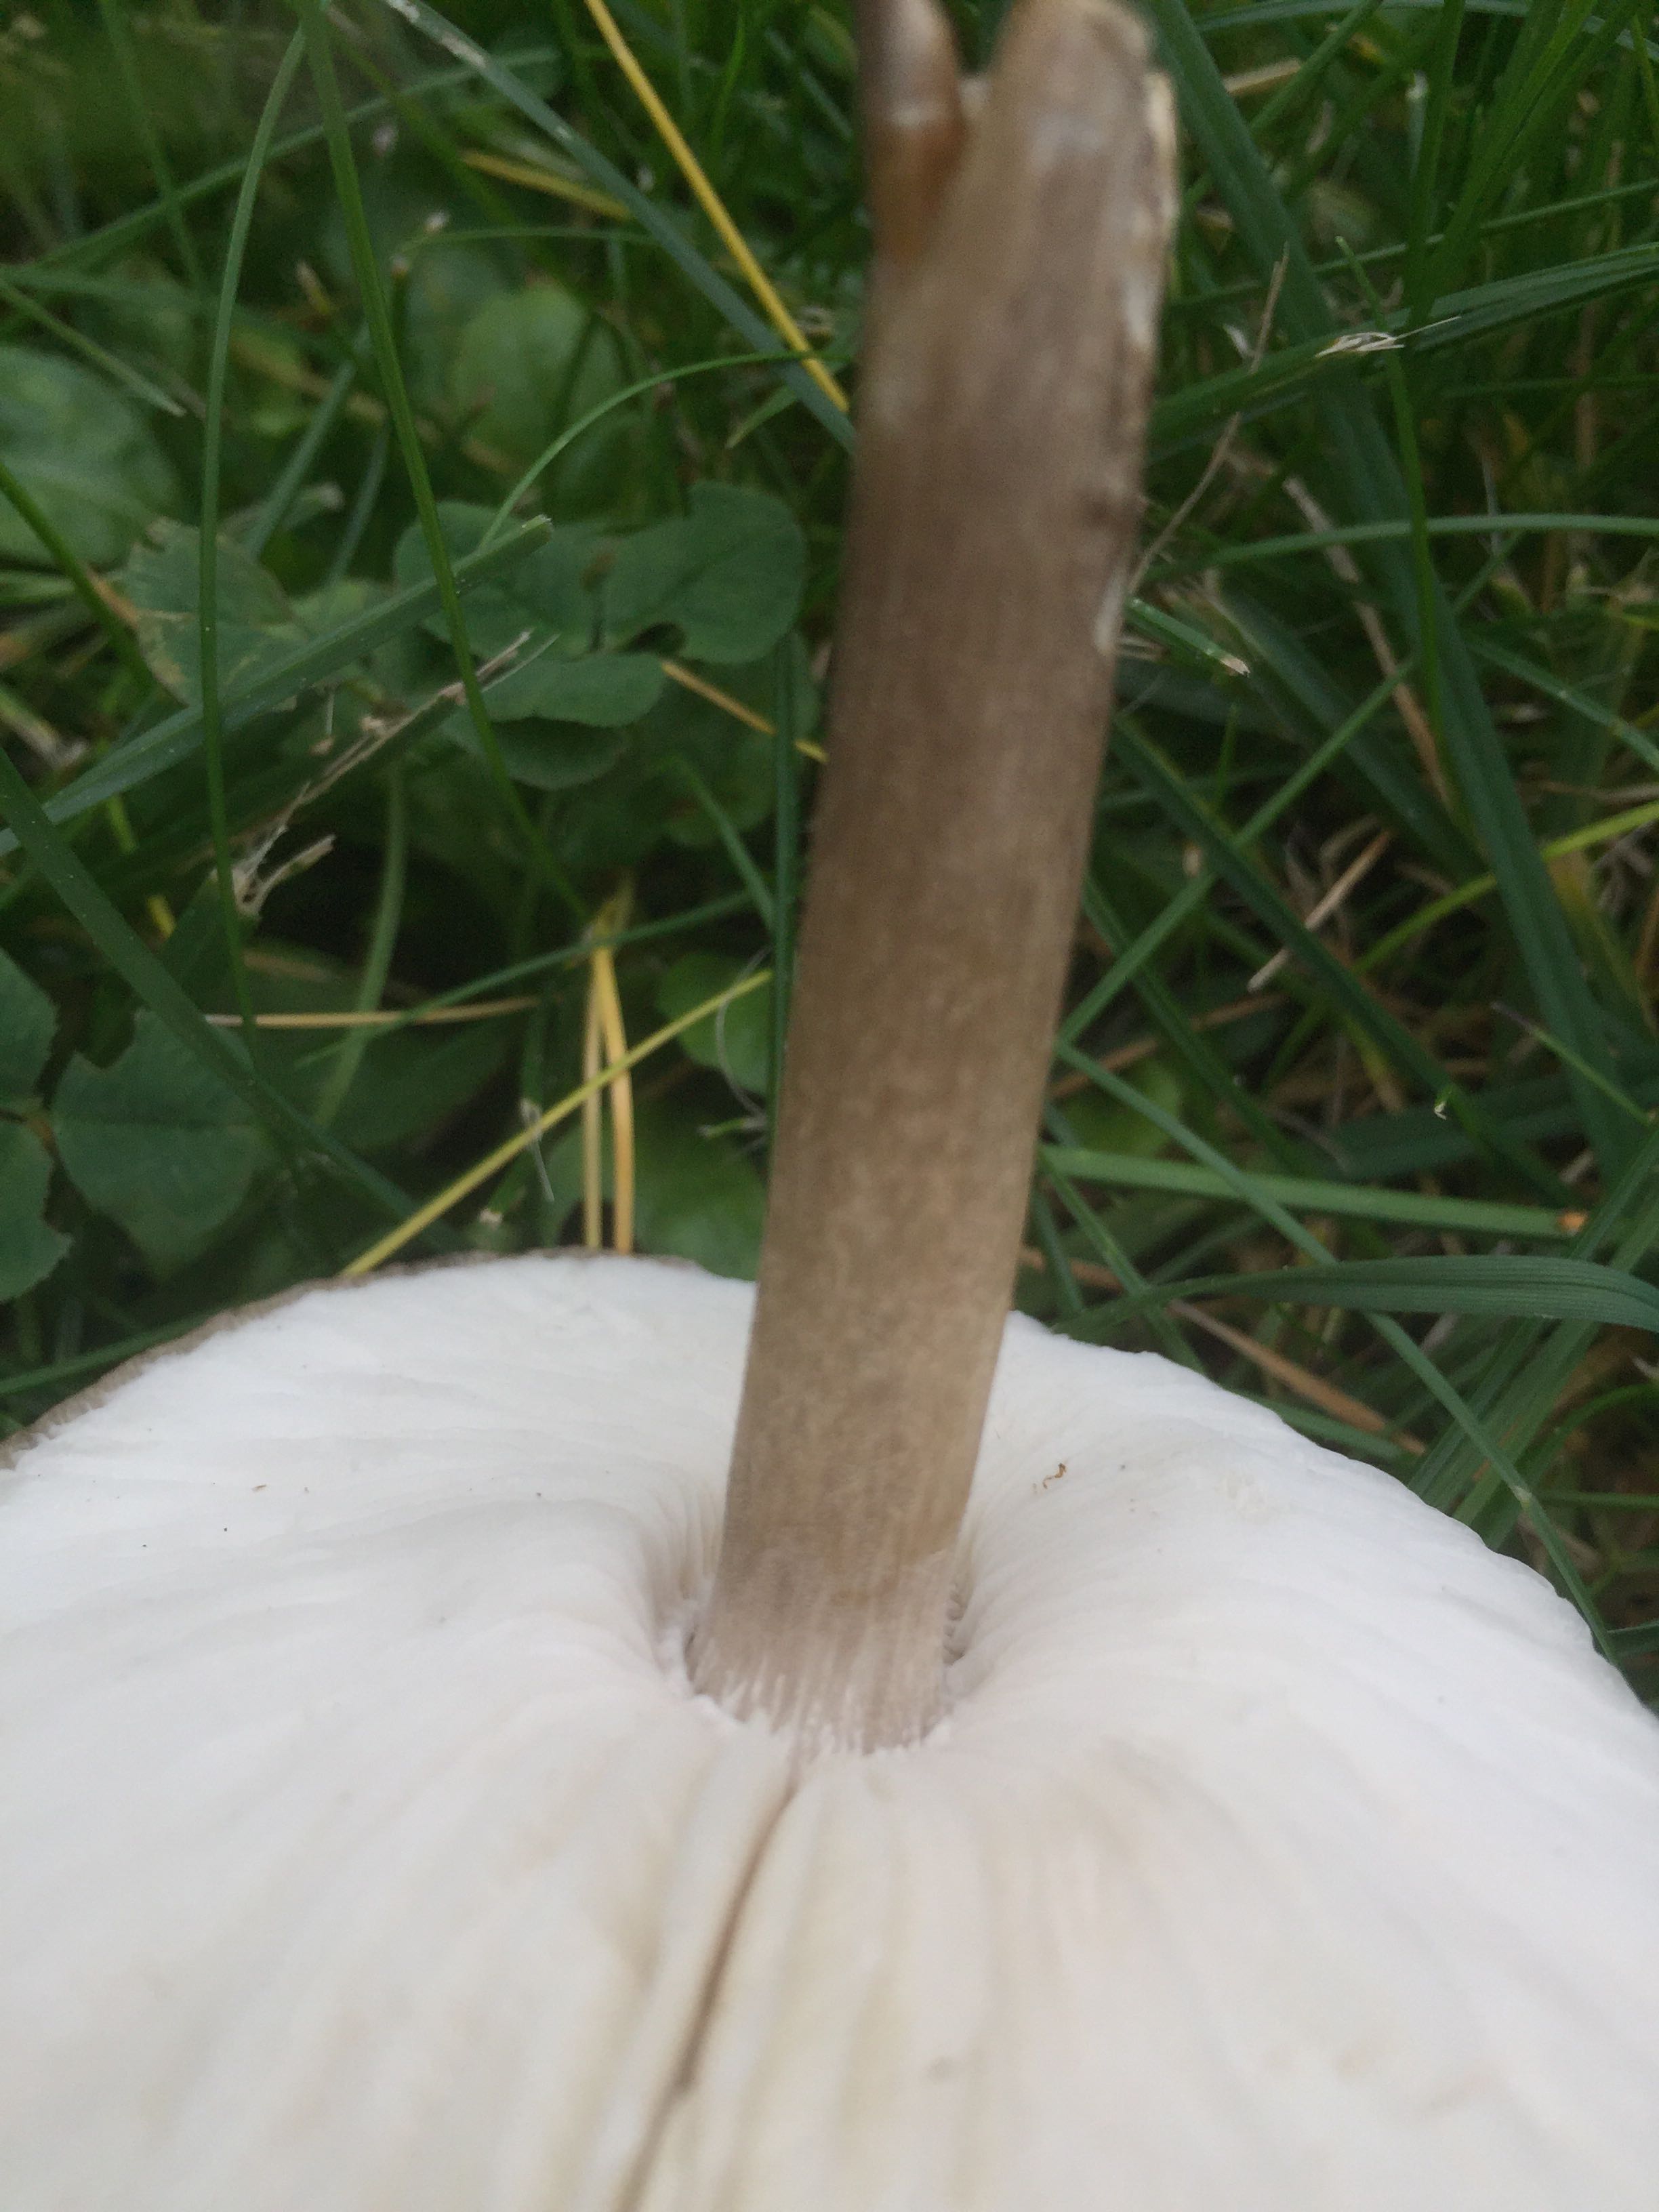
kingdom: Fungi
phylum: Basidiomycota
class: Agaricomycetes
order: Agaricales
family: Tricholomataceae
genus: Melanoleuca
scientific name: Melanoleuca
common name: munkehat
